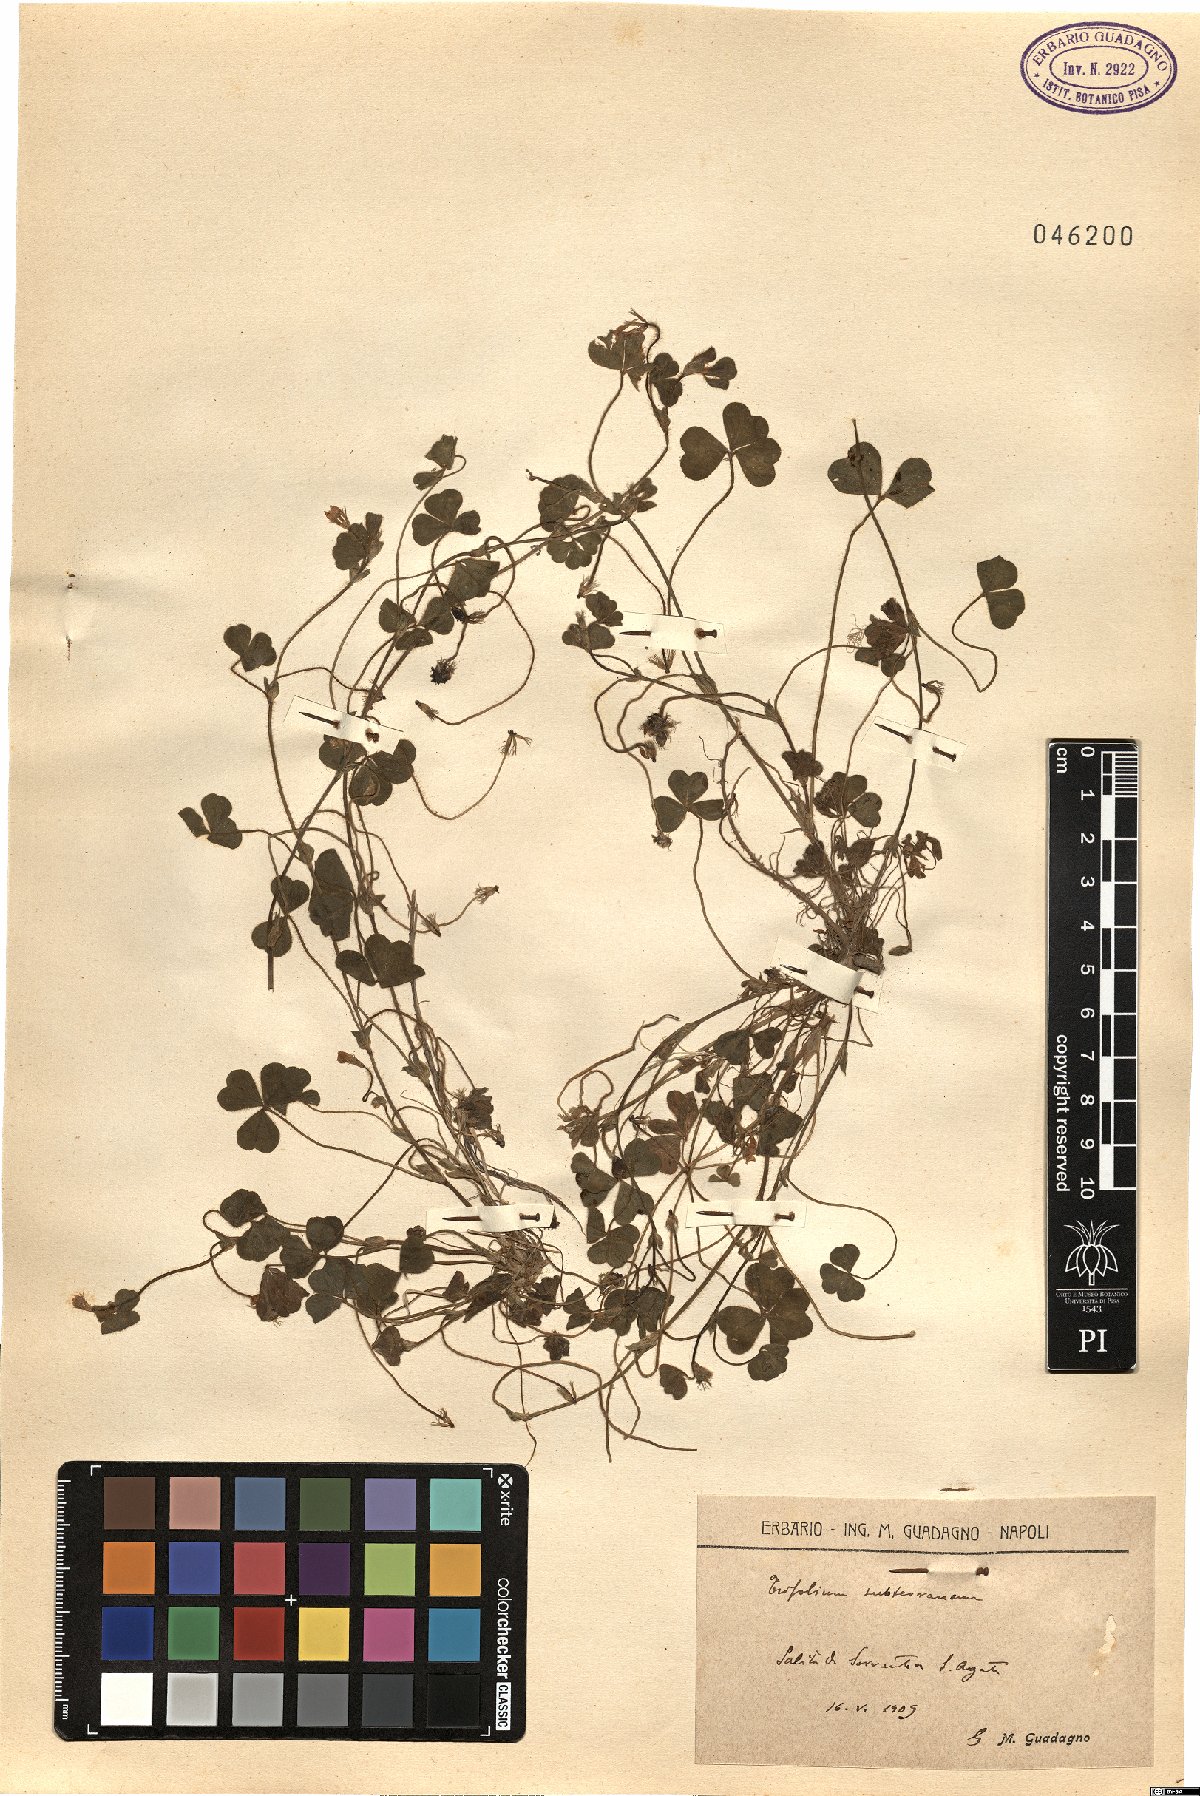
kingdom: Plantae
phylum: Tracheophyta
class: Magnoliopsida
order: Fabales
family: Fabaceae
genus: Trifolium
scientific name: Trifolium subterraneum
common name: Subterranean clover
